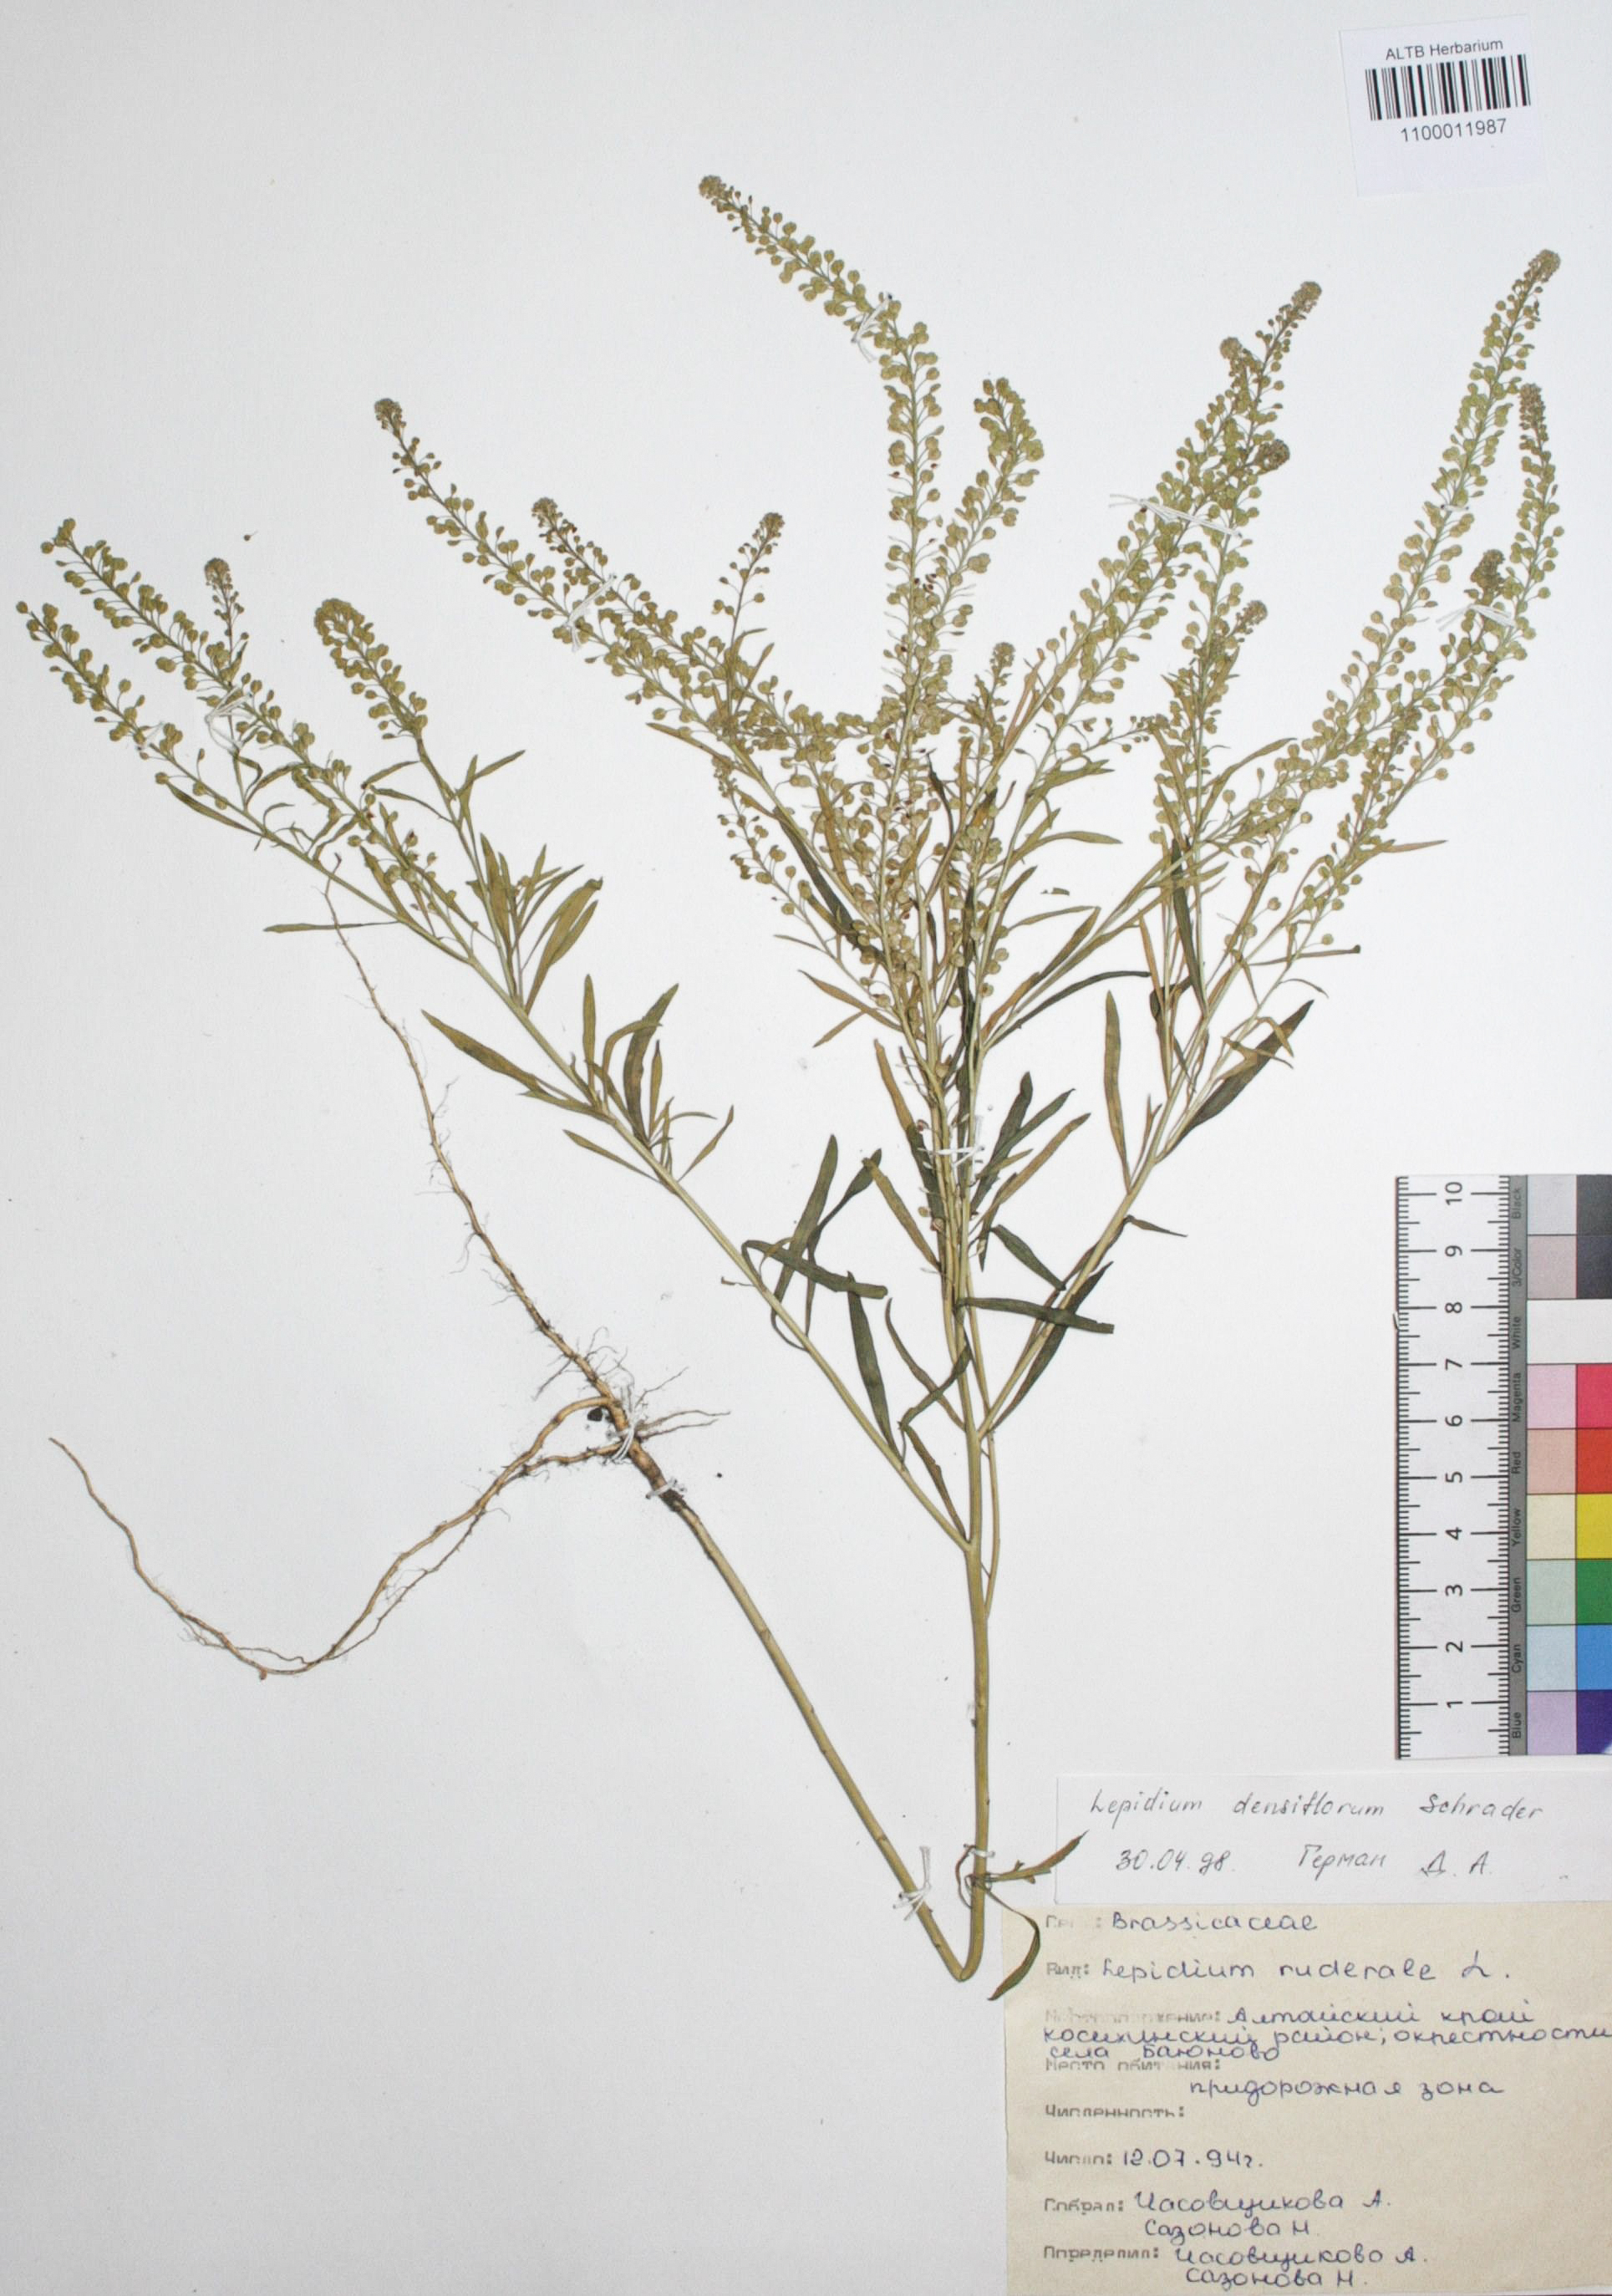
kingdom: Plantae
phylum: Tracheophyta
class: Magnoliopsida
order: Brassicales
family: Brassicaceae
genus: Lepidium
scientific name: Lepidium densiflorum
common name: Miner's pepperwort
